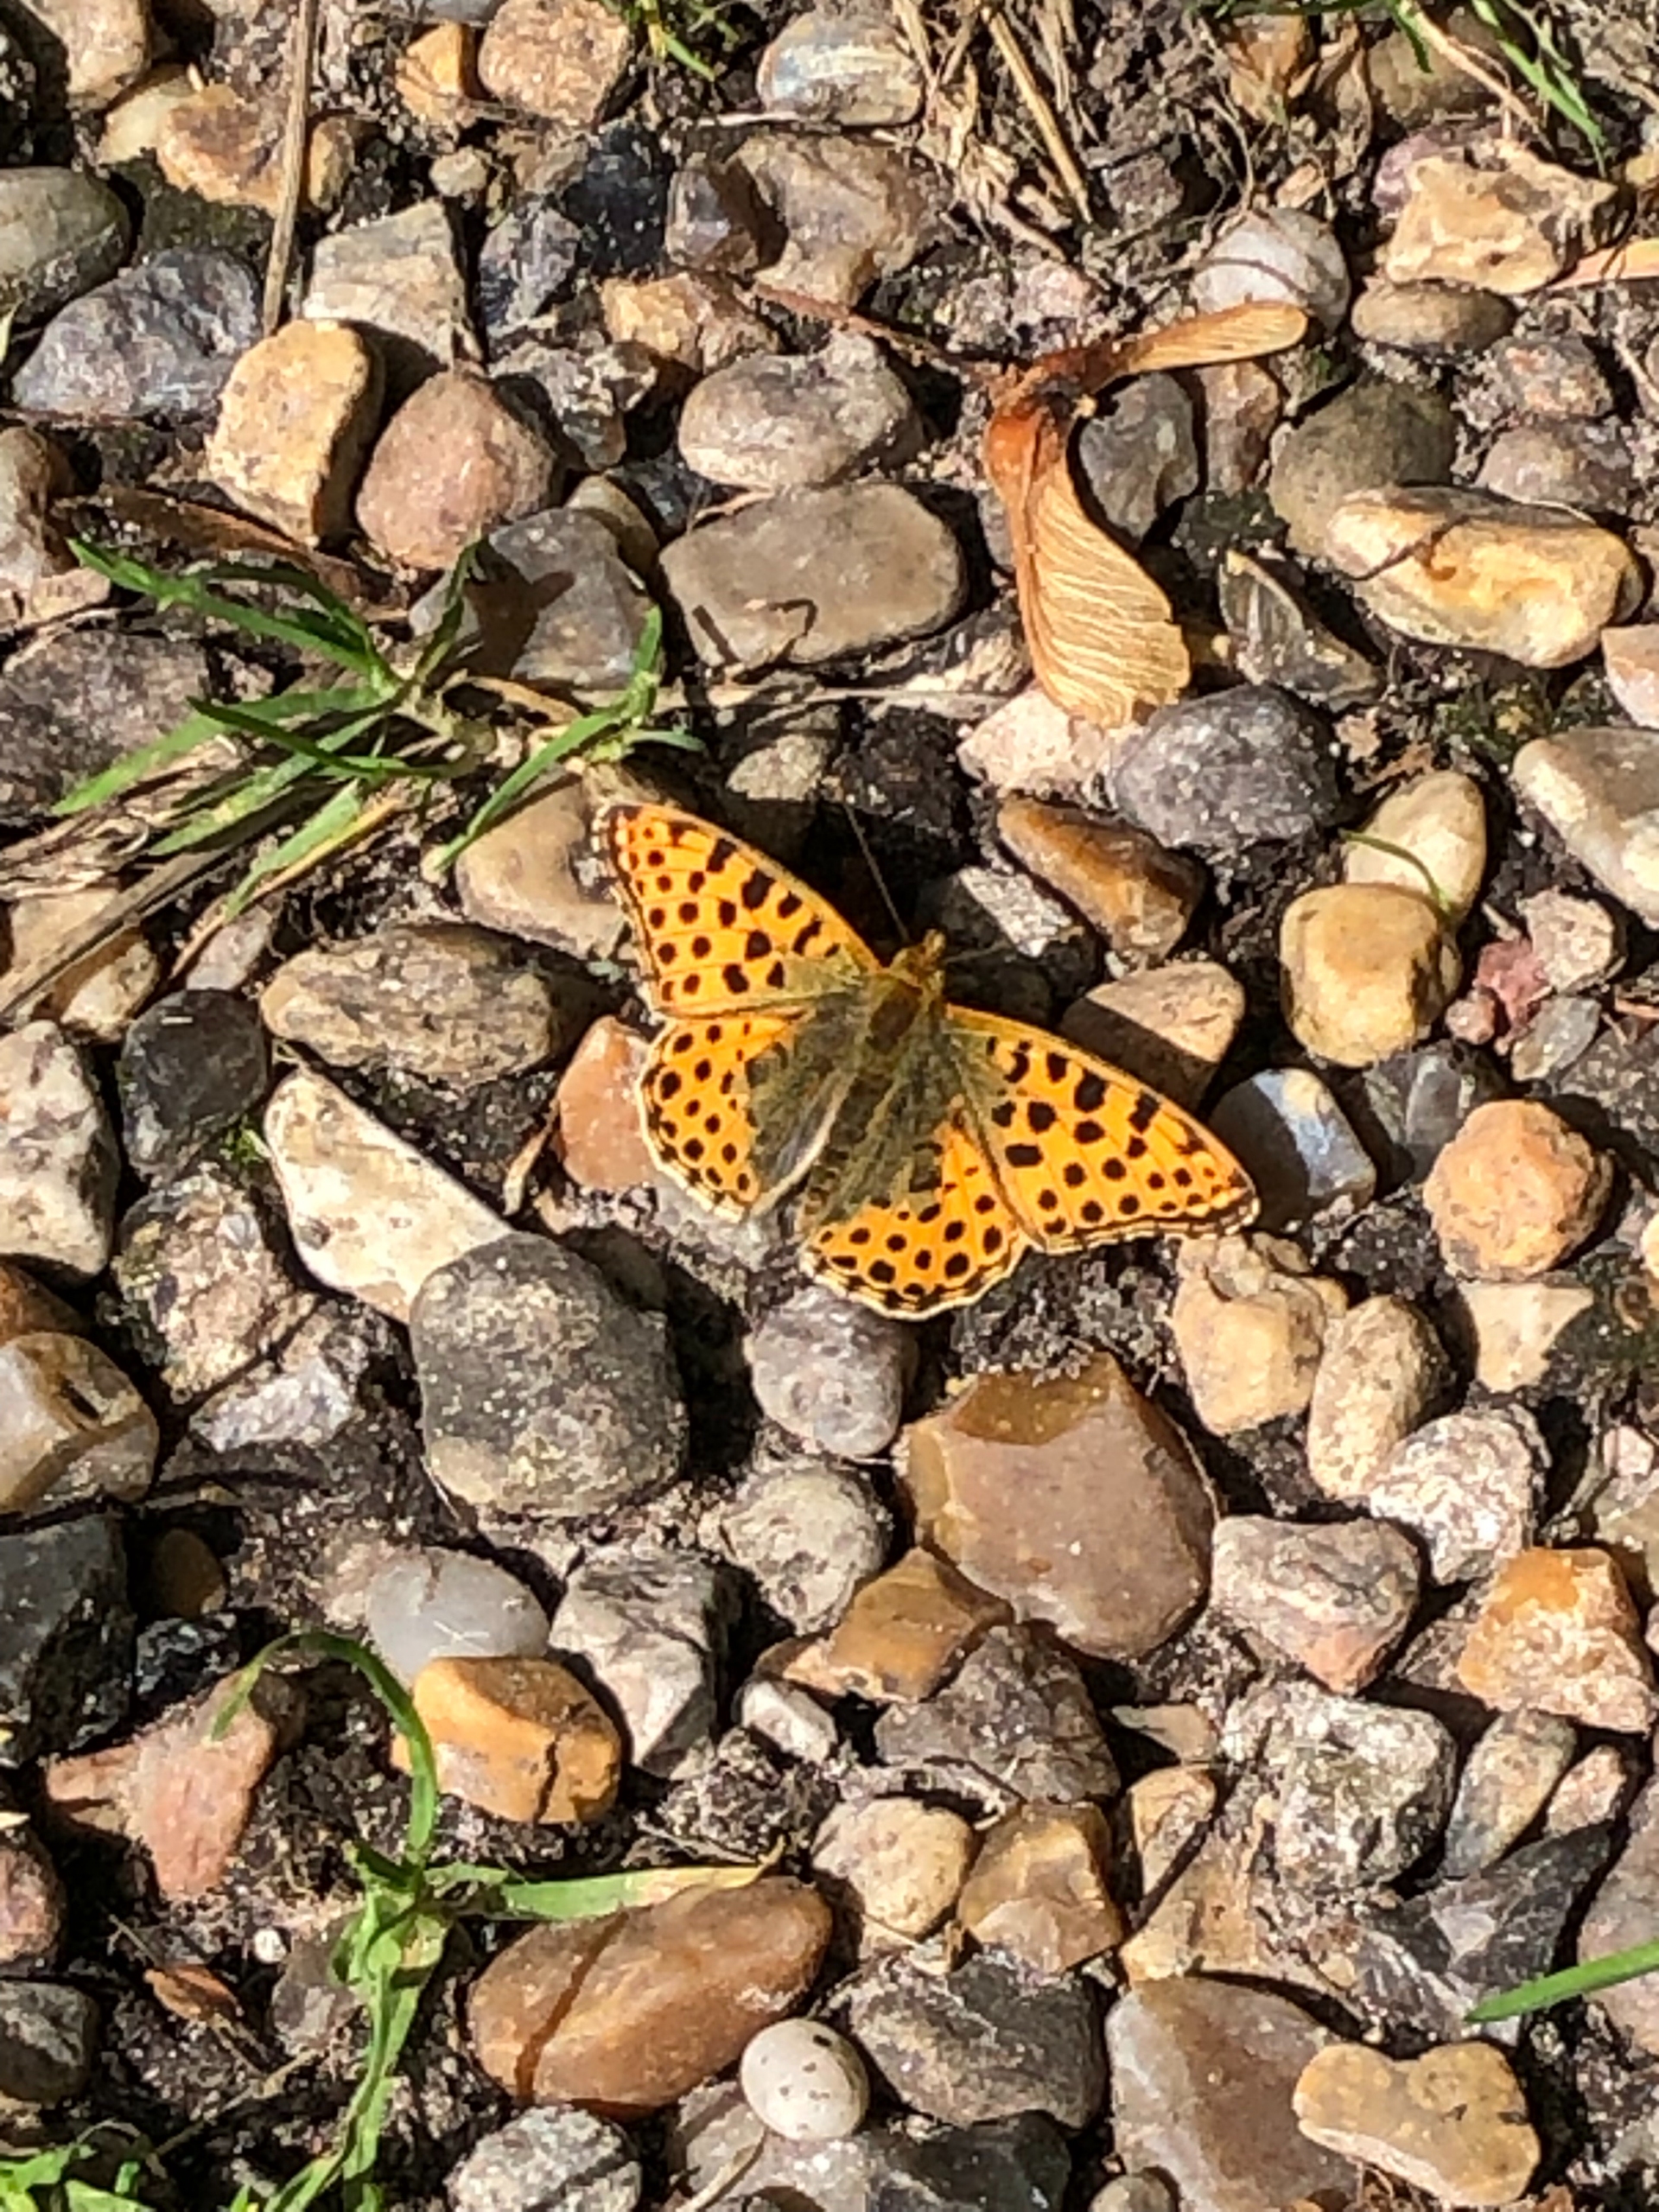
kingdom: Animalia
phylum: Arthropoda
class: Insecta
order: Lepidoptera
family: Nymphalidae
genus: Issoria
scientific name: Issoria lathonia
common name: Storplettet perlemorsommerfugl
